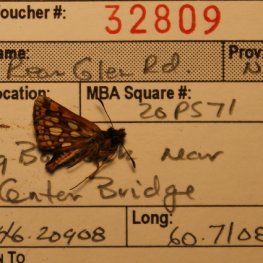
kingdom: Animalia
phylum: Arthropoda
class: Insecta
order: Lepidoptera
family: Hesperiidae
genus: Carterocephalus
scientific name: Carterocephalus palaemon
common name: Chequered Skipper
